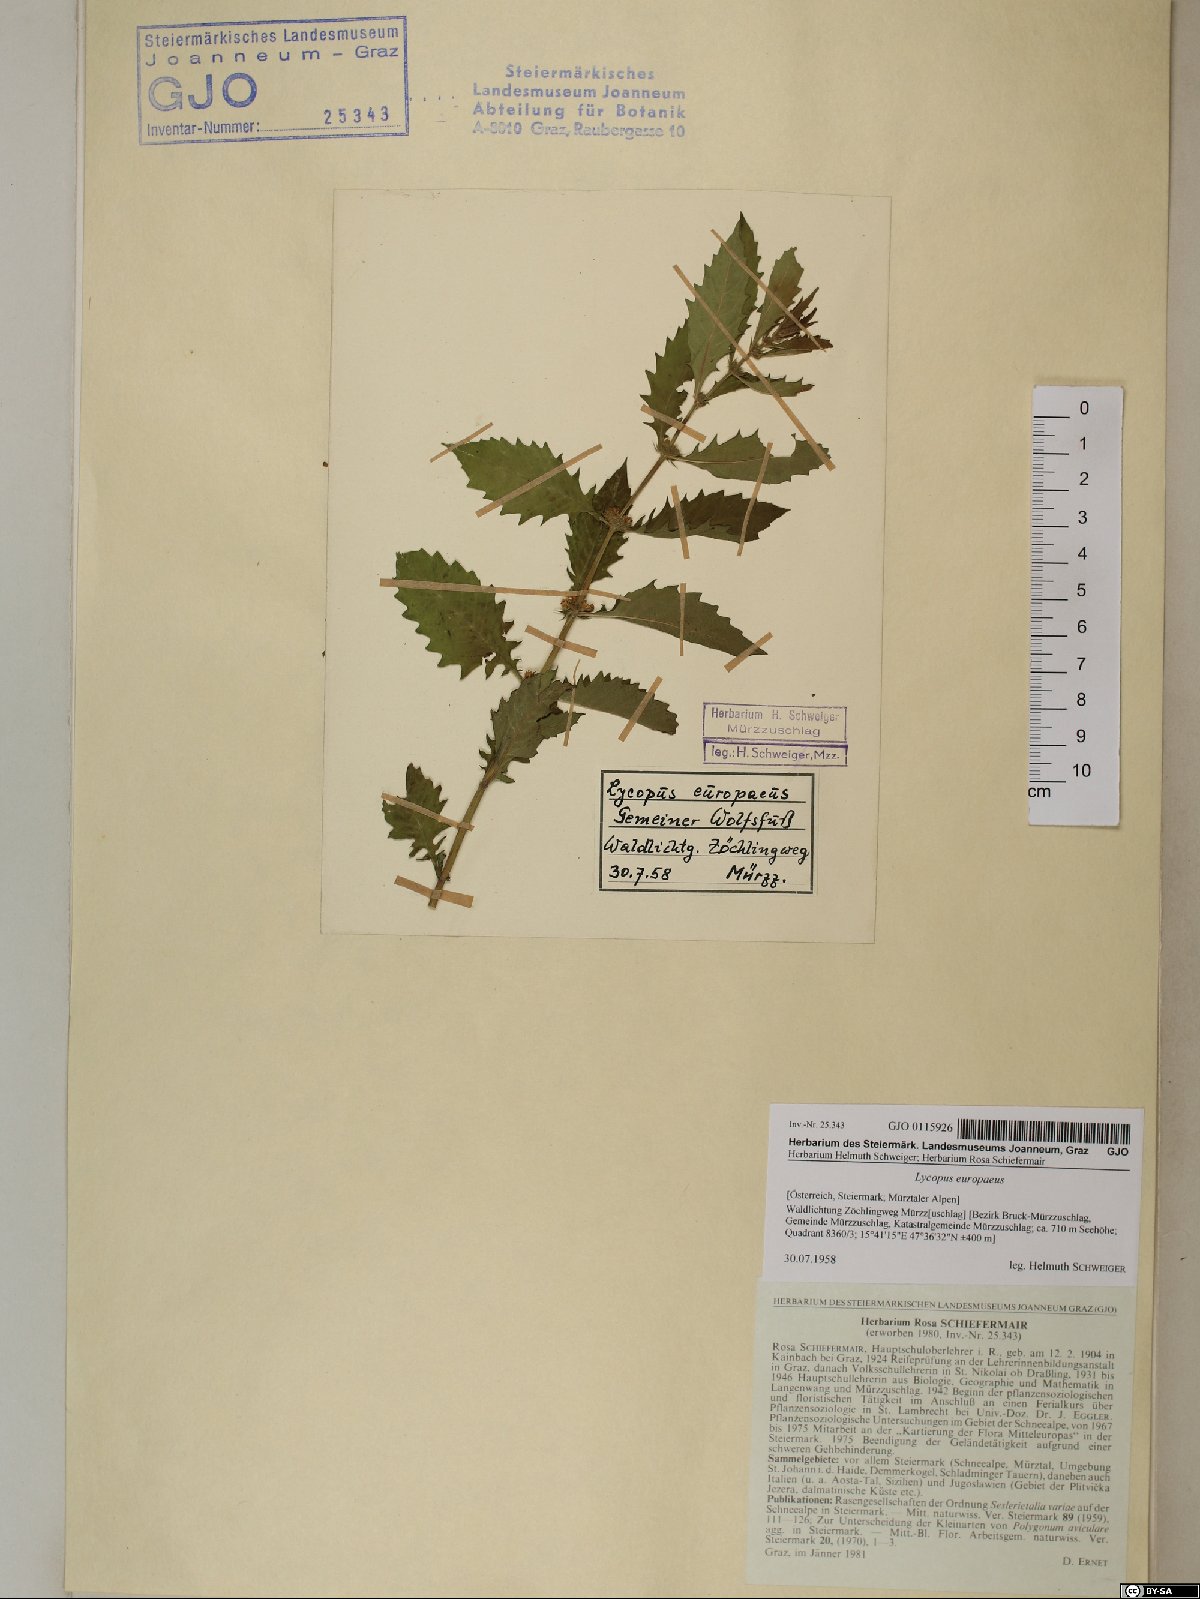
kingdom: Plantae
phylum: Tracheophyta
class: Magnoliopsida
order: Lamiales
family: Lamiaceae
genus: Lycopus
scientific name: Lycopus europaeus
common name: European bugleweed
